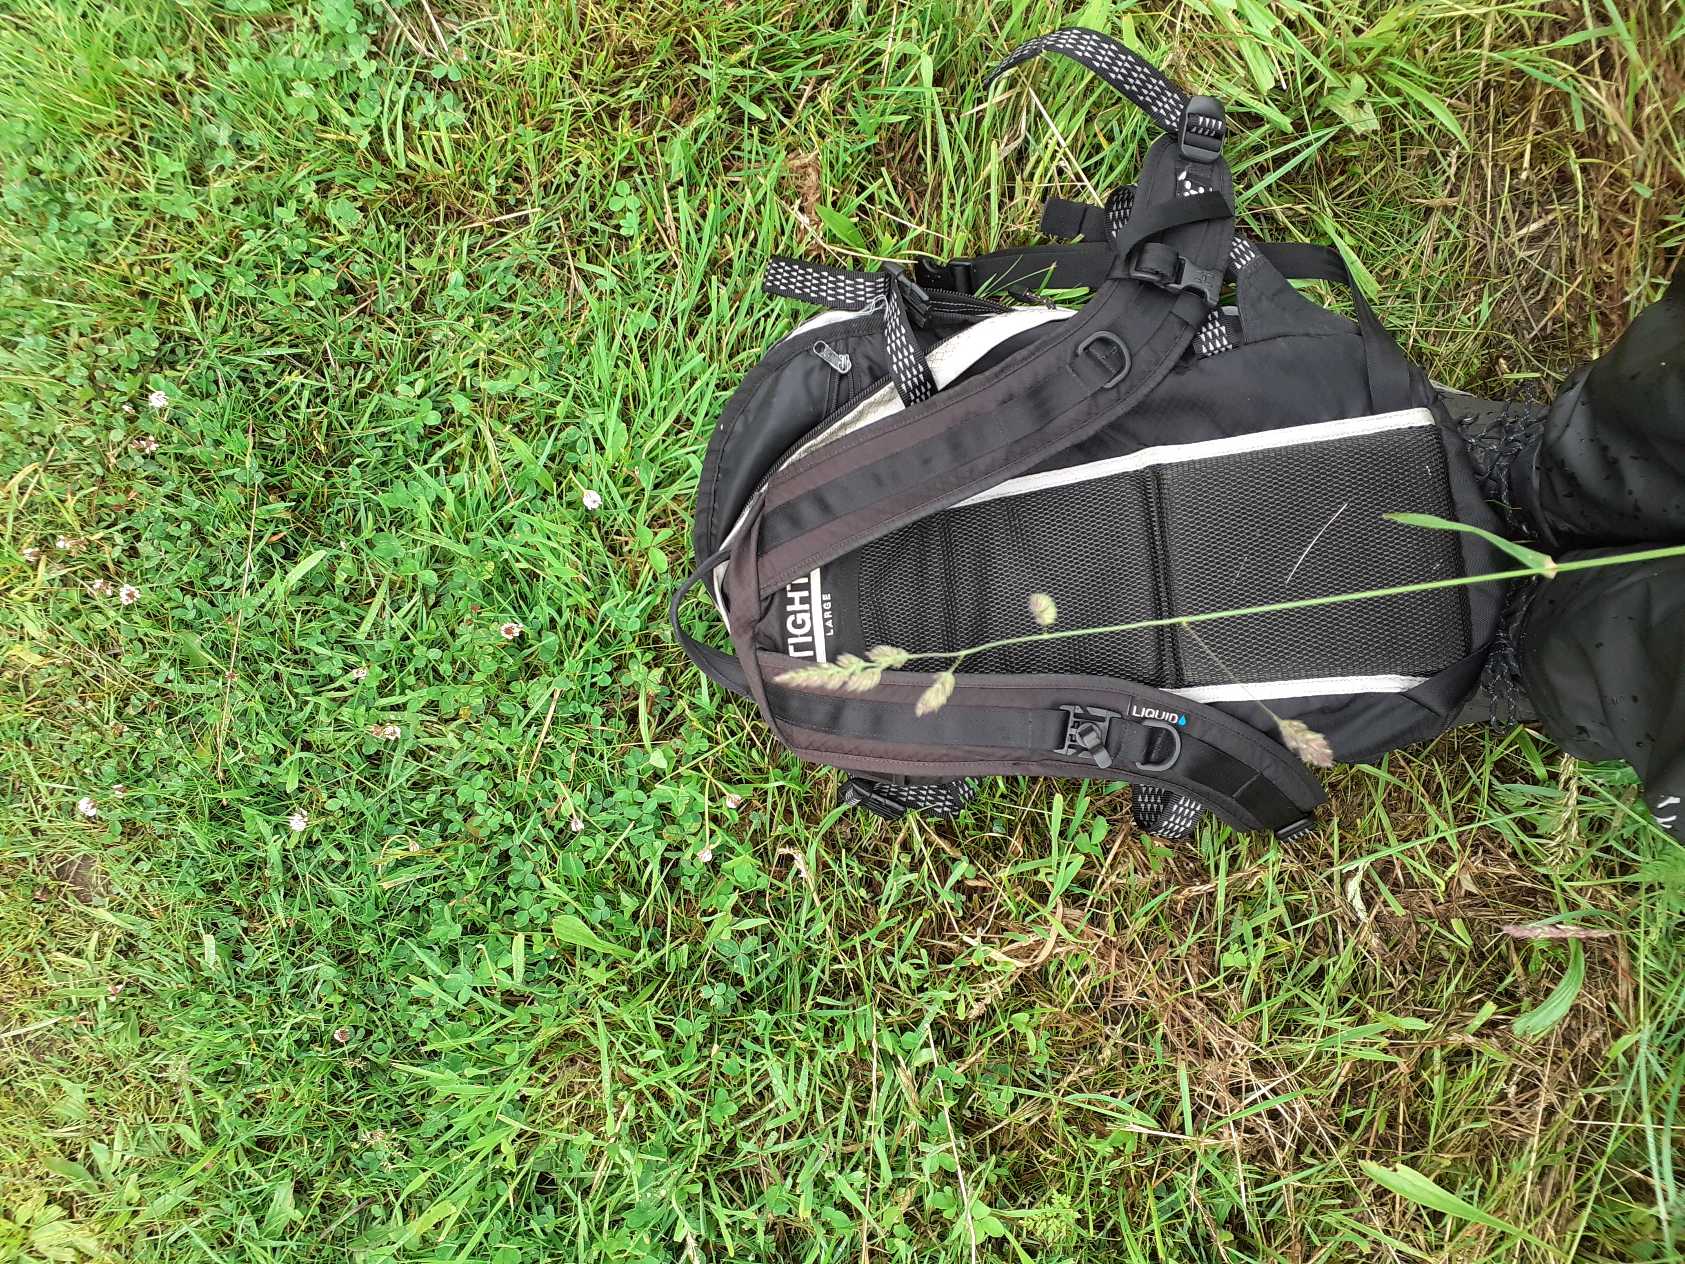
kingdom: Plantae
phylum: Tracheophyta
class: Liliopsida
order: Poales
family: Poaceae
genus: Dactylis
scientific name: Dactylis glomerata
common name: Almindelig hundegræs
